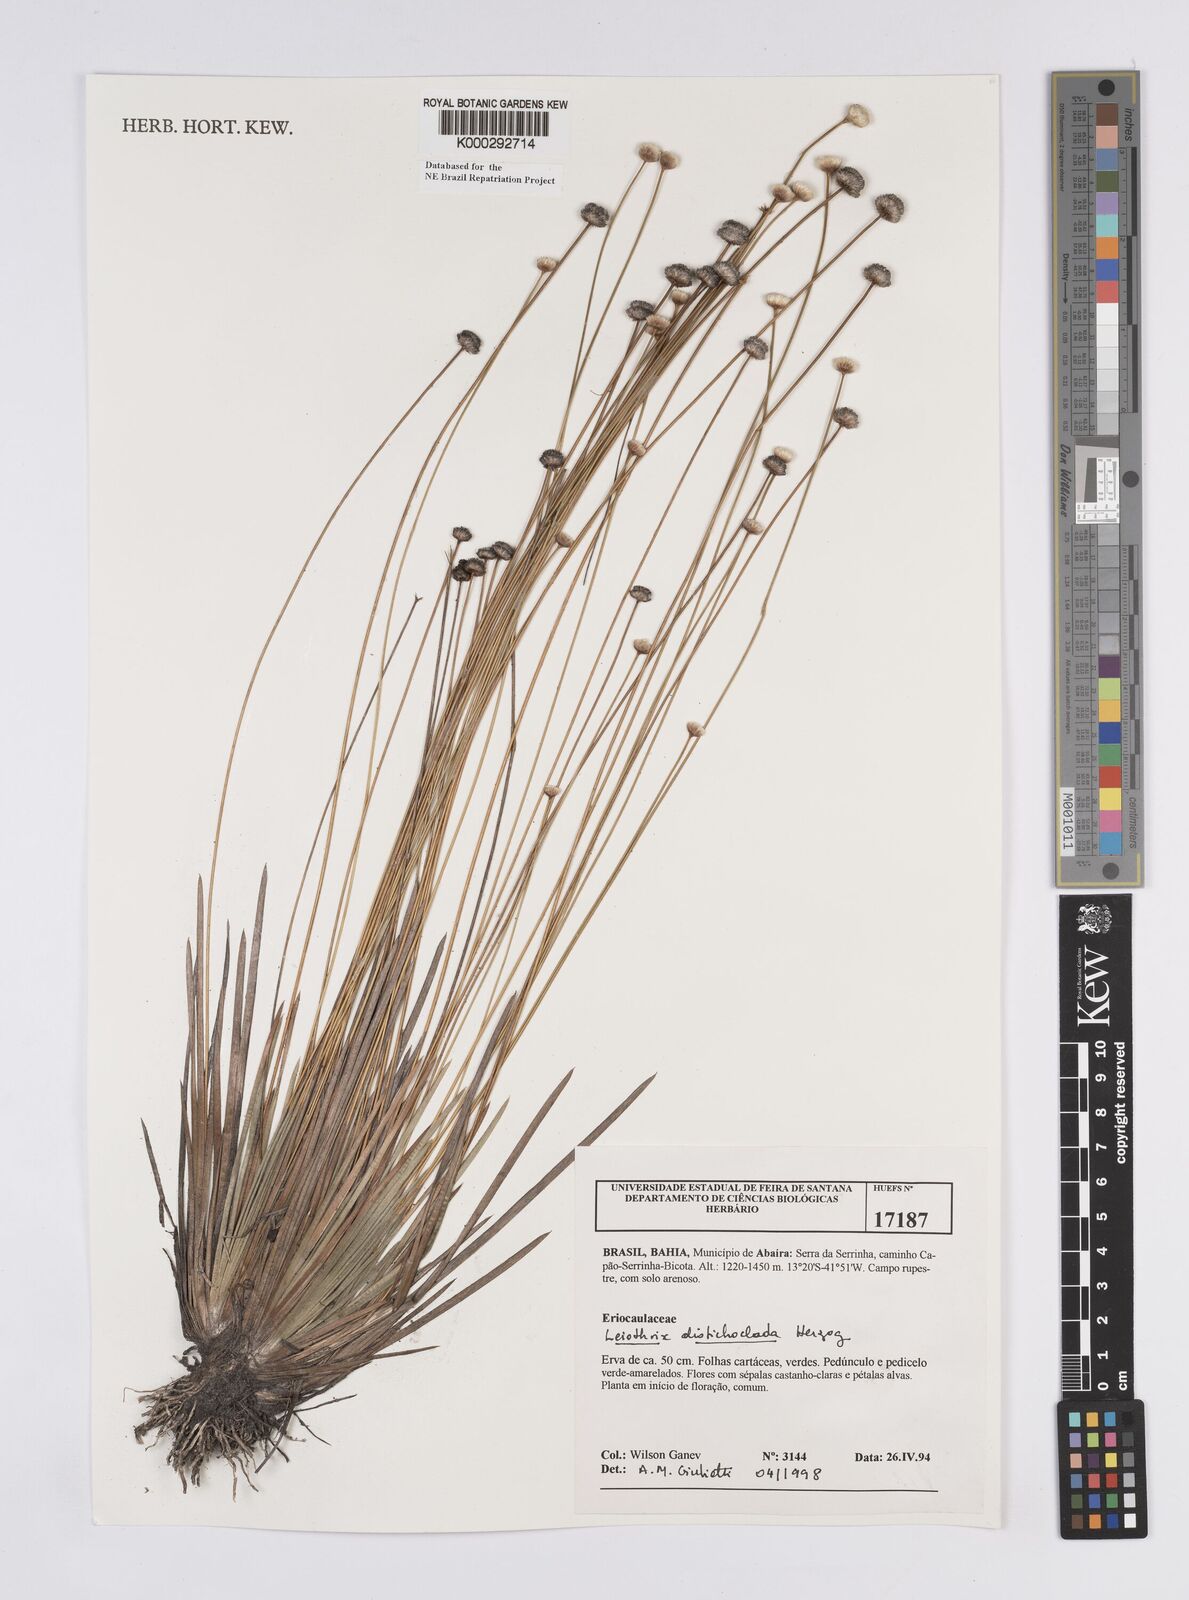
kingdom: Plantae
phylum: Tracheophyta
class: Liliopsida
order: Poales
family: Eriocaulaceae
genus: Leiothrix
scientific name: Leiothrix distichoclada
